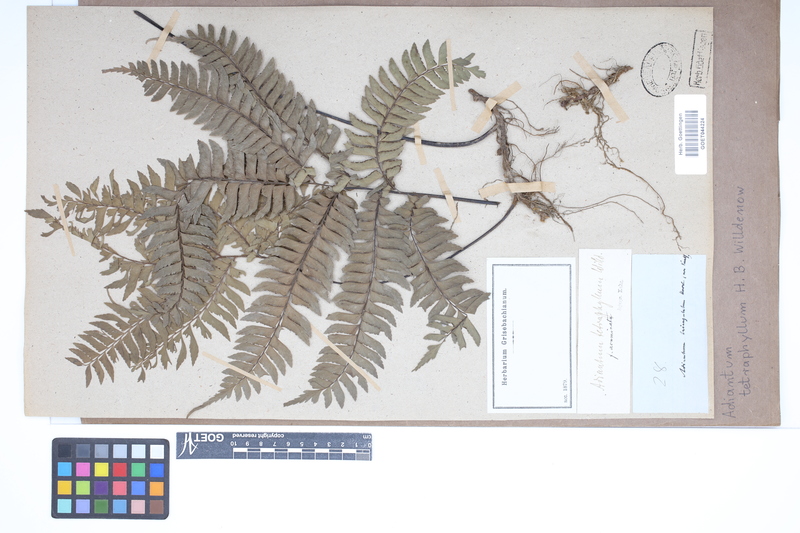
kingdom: Plantae
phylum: Tracheophyta
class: Polypodiopsida
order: Polypodiales
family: Pteridaceae
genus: Adiantum
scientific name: Adiantum tetraphyllum
